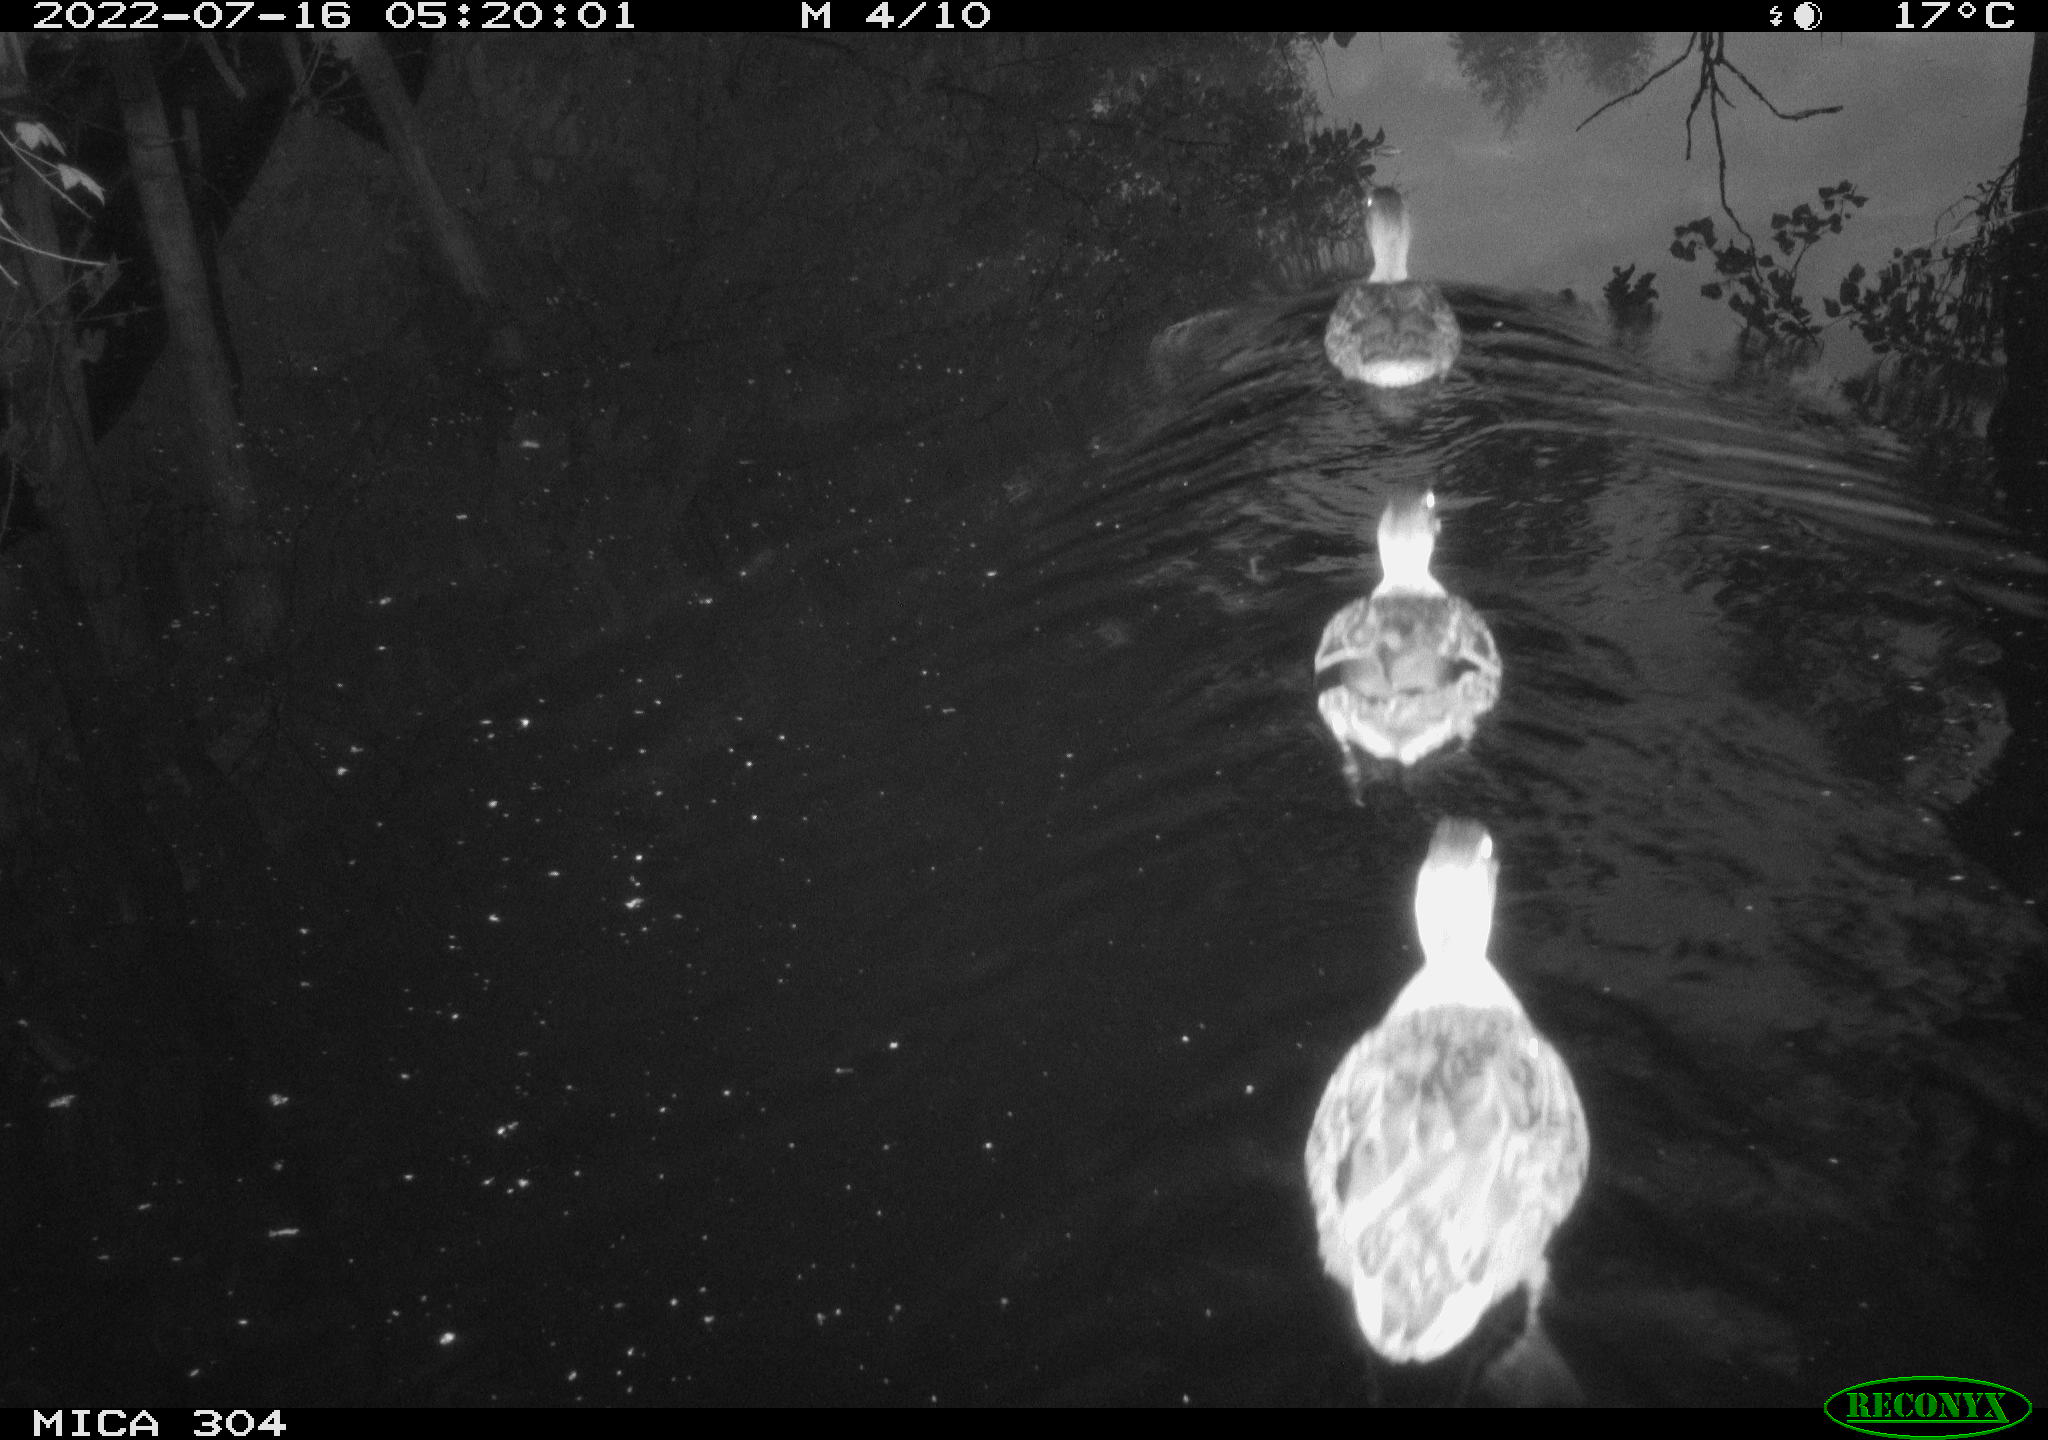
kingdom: Animalia
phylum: Chordata
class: Aves
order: Pelecaniformes
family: Ardeidae
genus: Ardea
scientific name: Ardea
